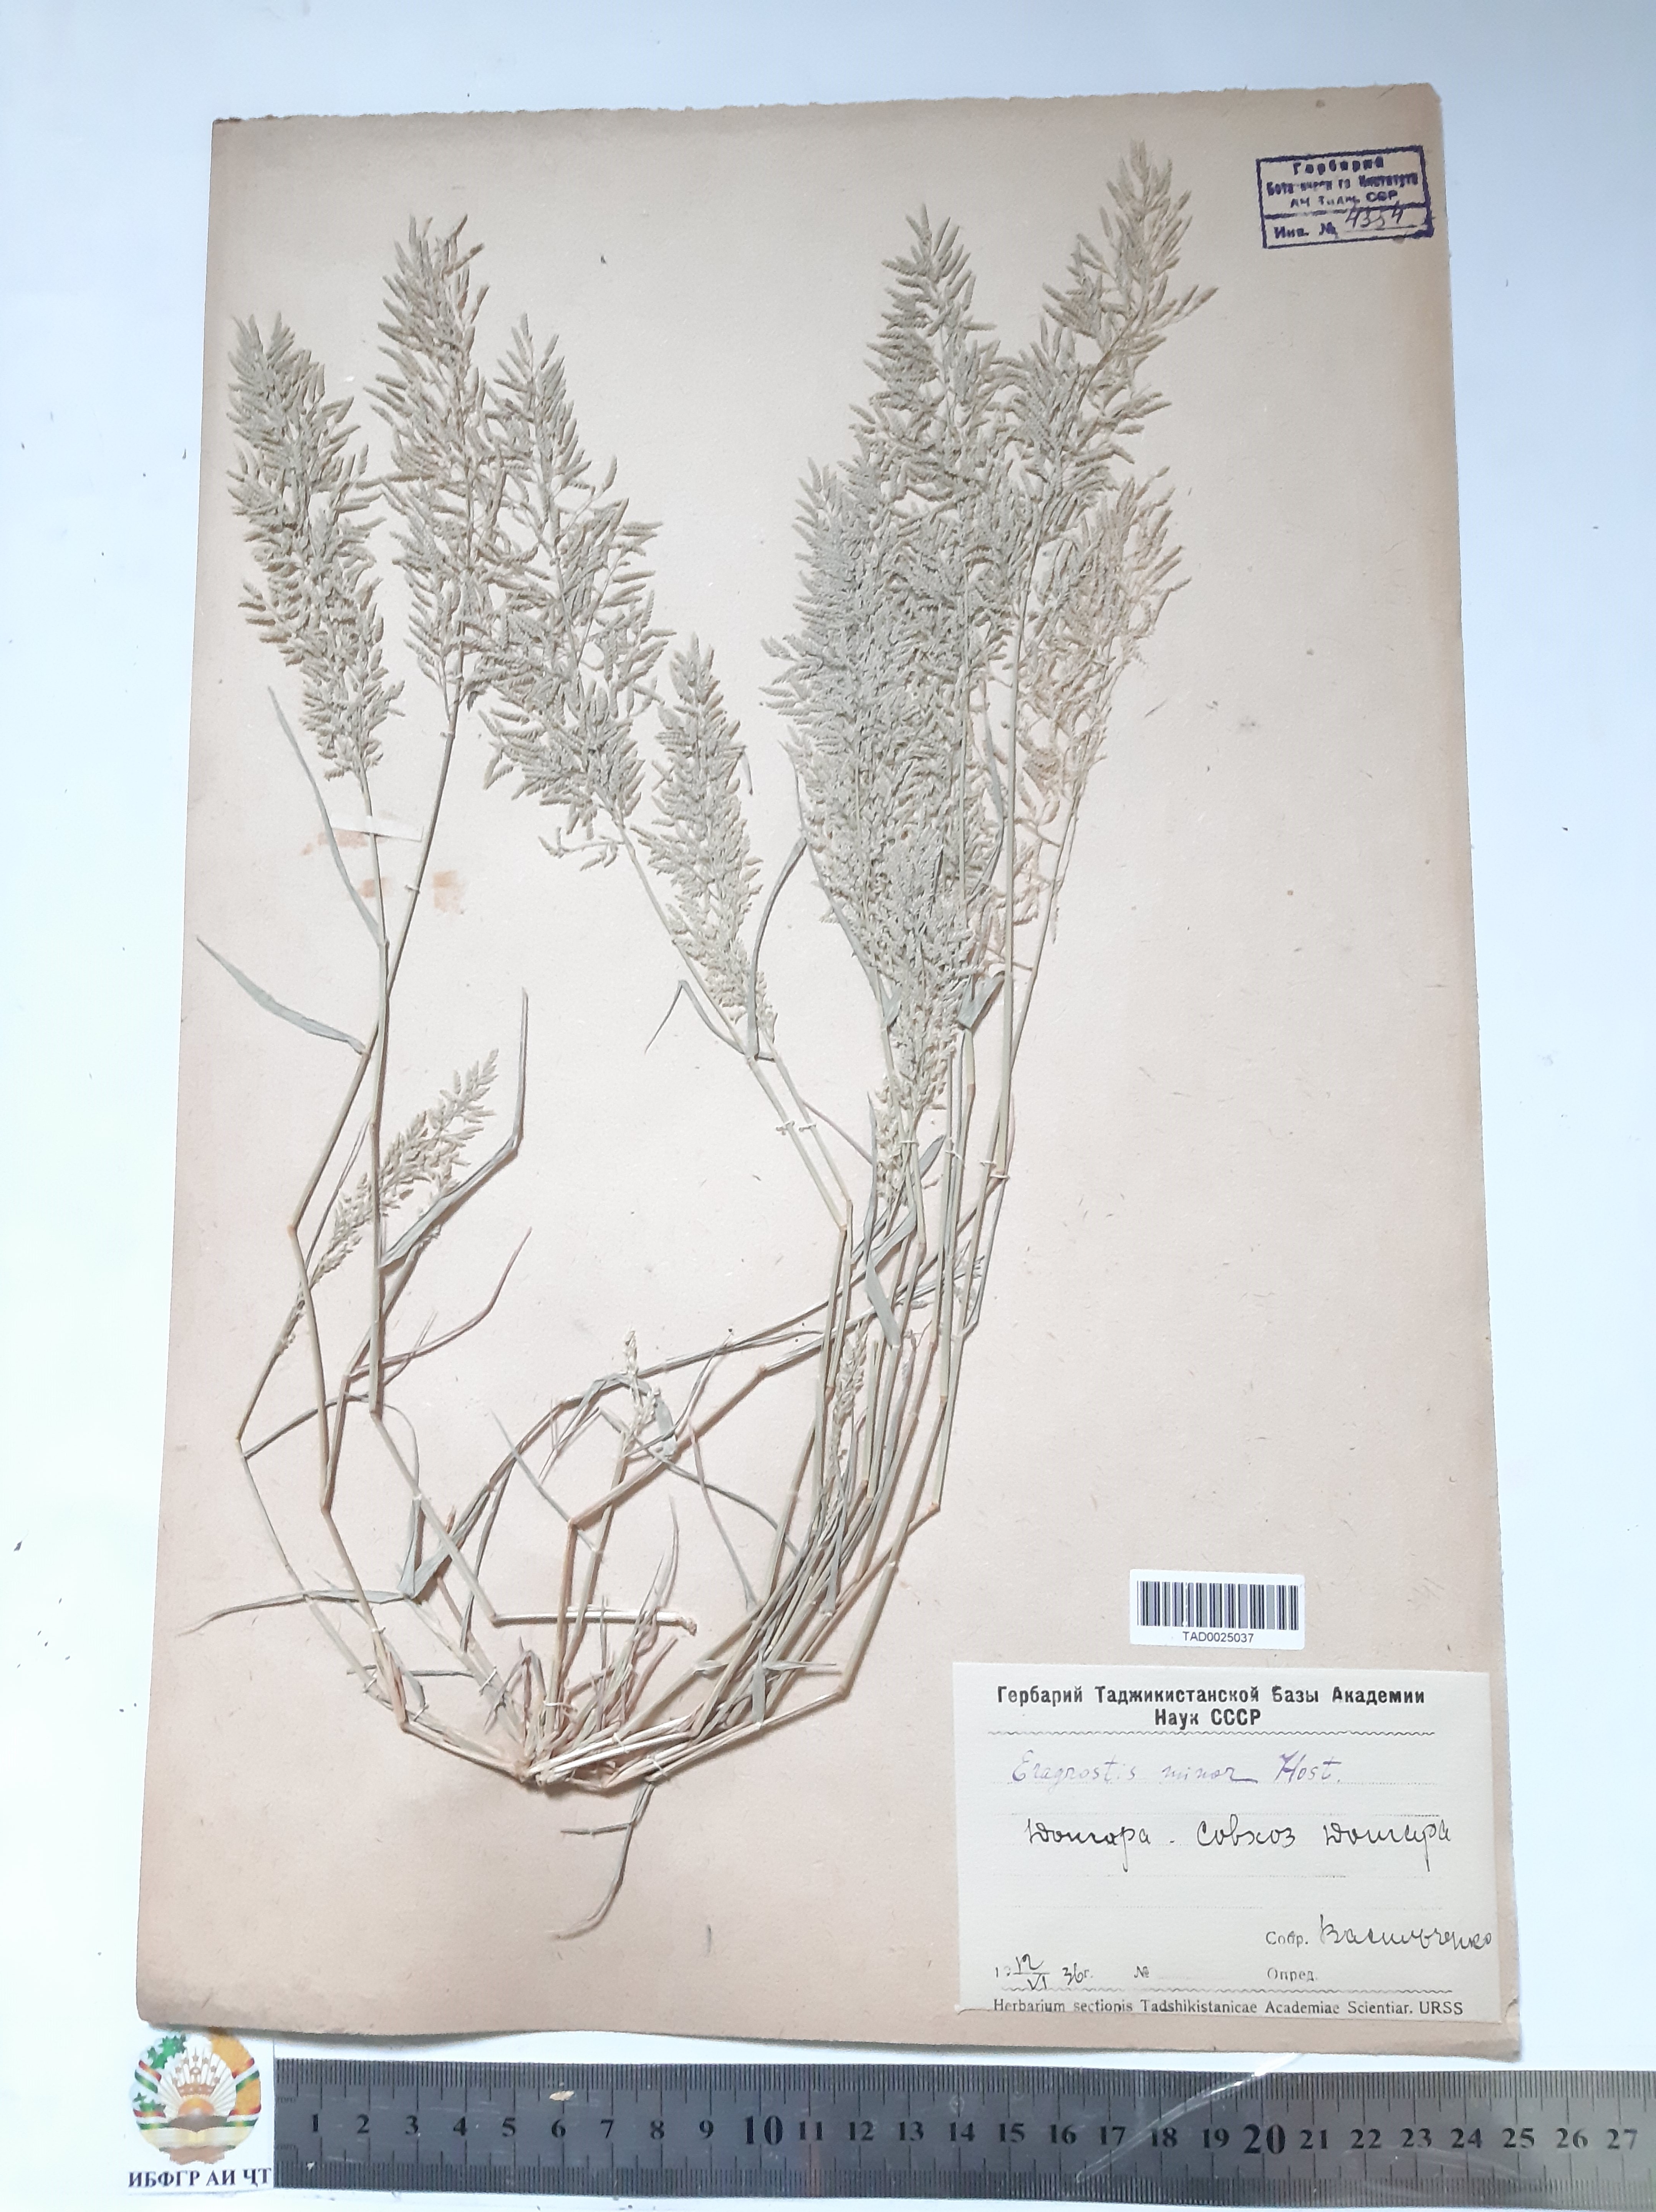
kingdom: Plantae
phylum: Tracheophyta
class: Liliopsida
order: Poales
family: Poaceae
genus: Eragrostis
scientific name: Eragrostis minor
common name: Small love-grass
